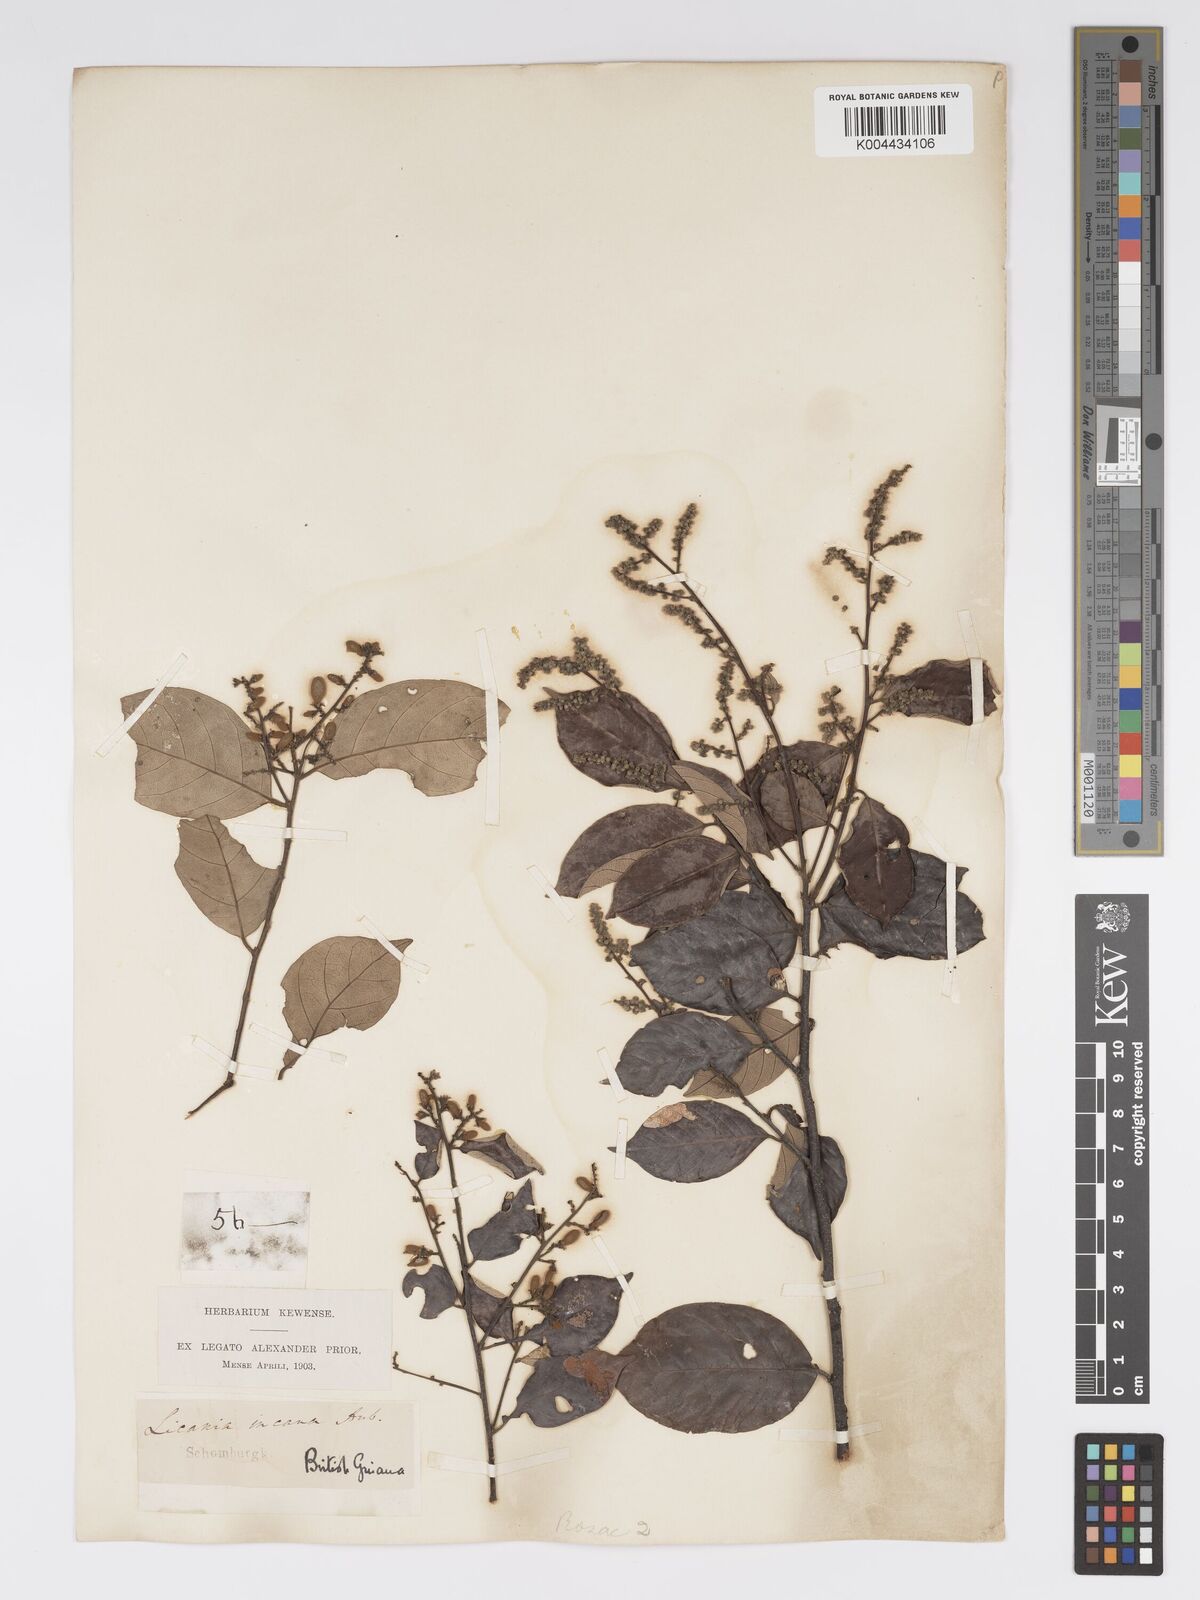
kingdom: Plantae
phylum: Tracheophyta
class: Magnoliopsida
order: Malpighiales
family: Chrysobalanaceae
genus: Licania
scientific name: Licania kunthiana
